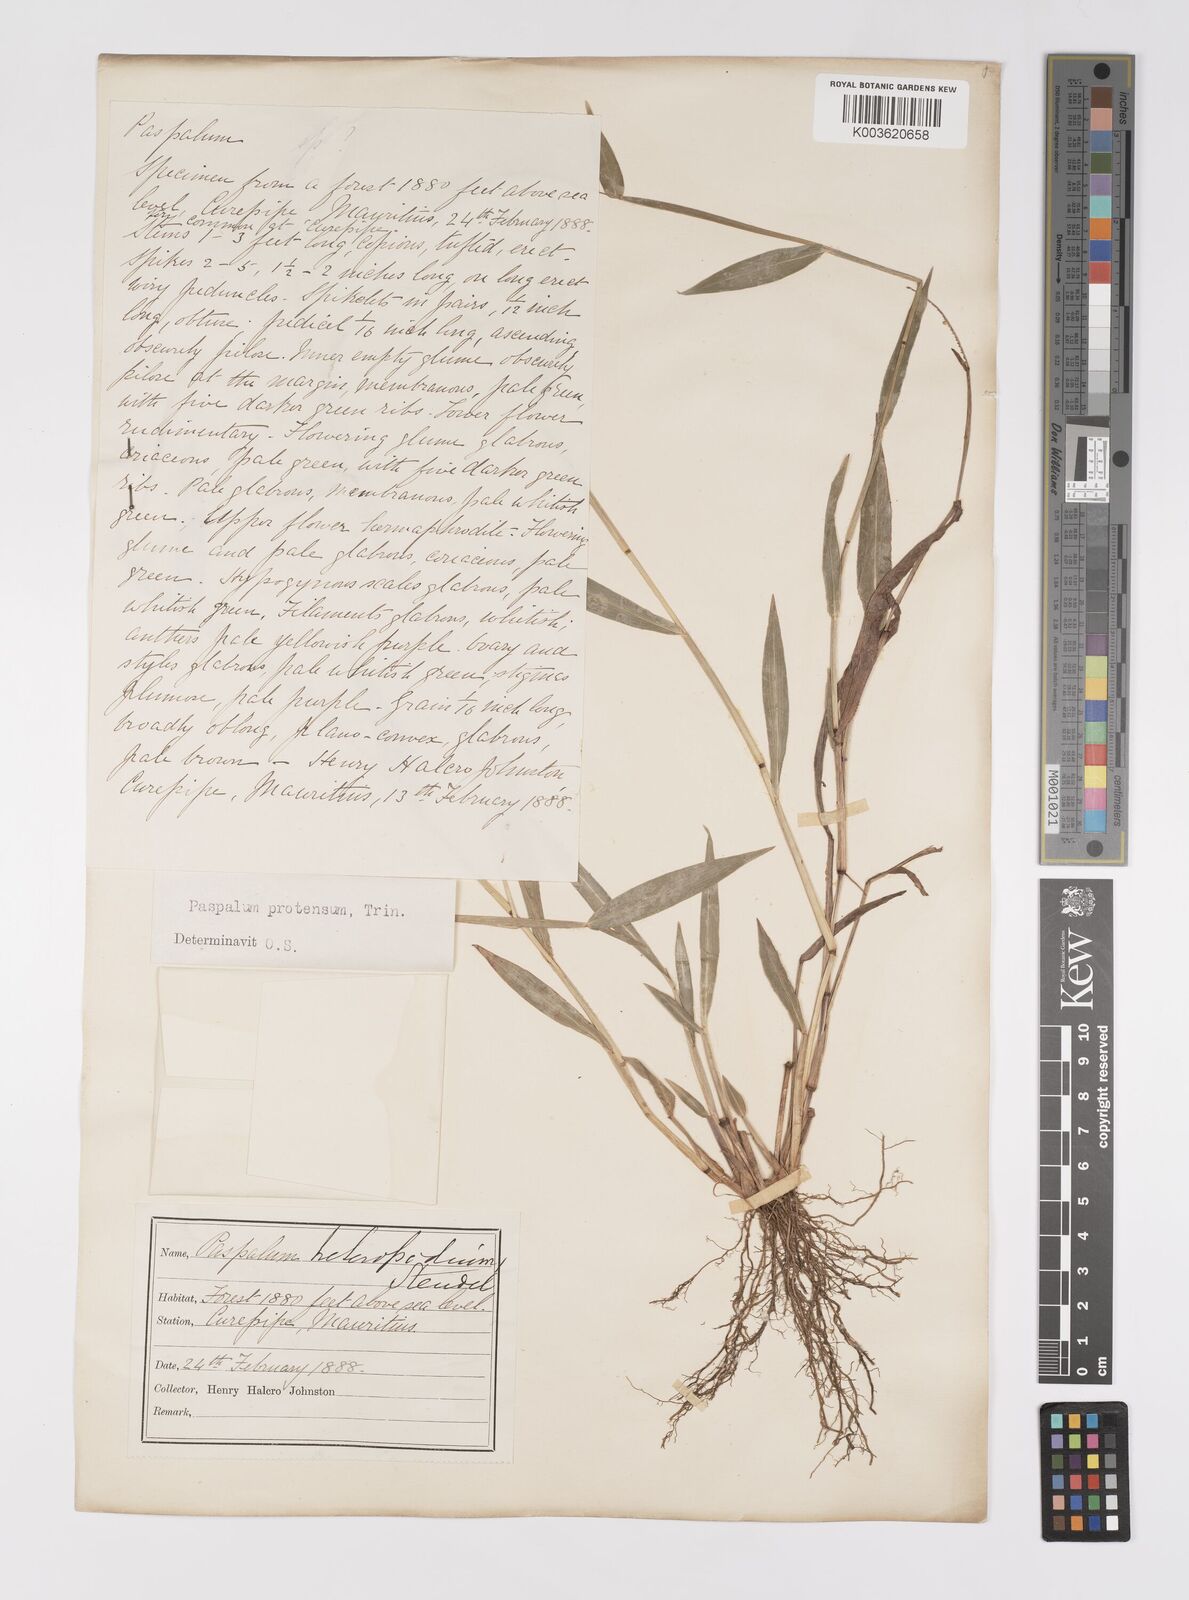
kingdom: Plantae
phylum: Tracheophyta
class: Liliopsida
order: Poales
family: Poaceae
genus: Paspalum
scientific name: Paspalum nutans
